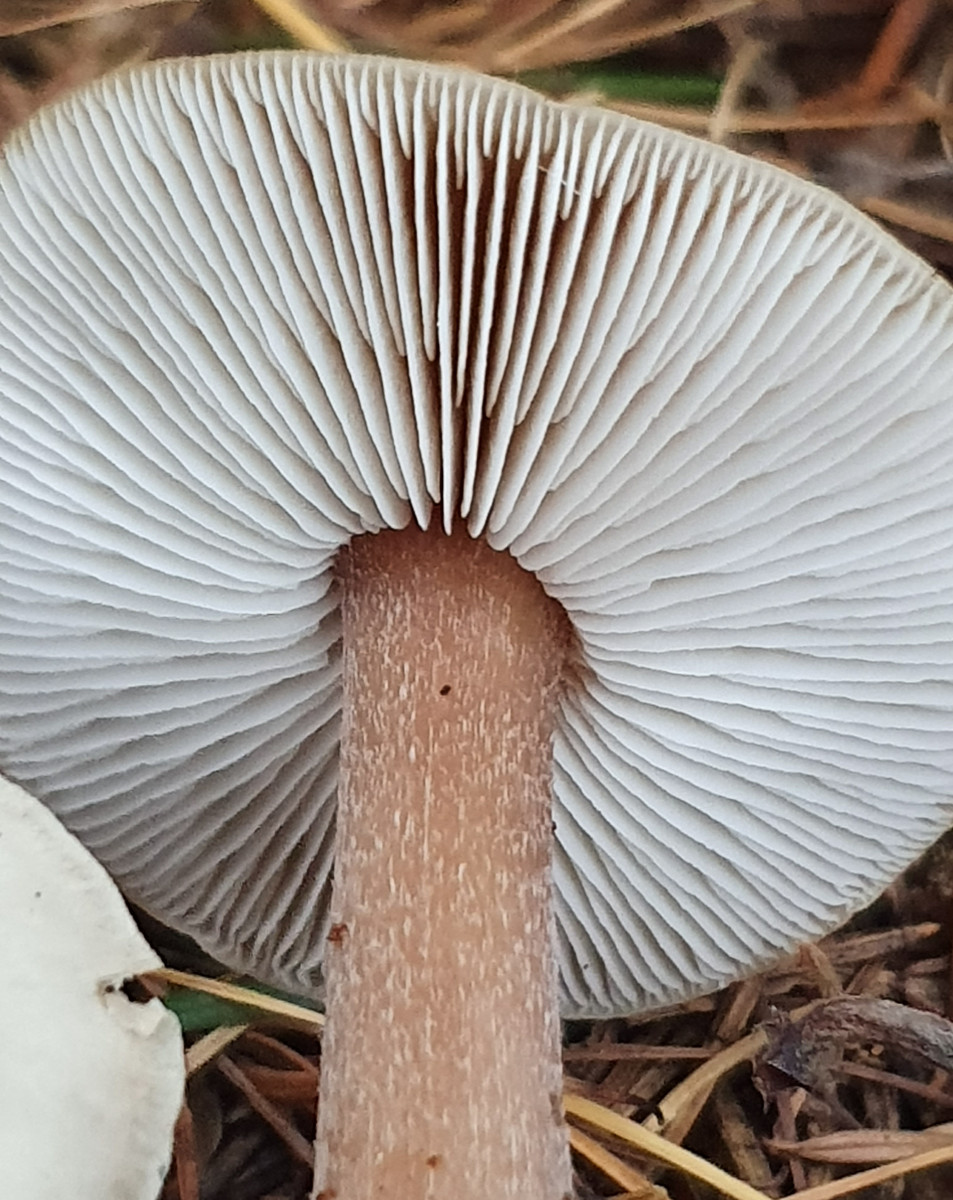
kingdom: Fungi
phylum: Basidiomycota
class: Agaricomycetes
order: Agaricales
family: Omphalotaceae
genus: Rhodocollybia
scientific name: Rhodocollybia asema
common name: horngrå fladhat
